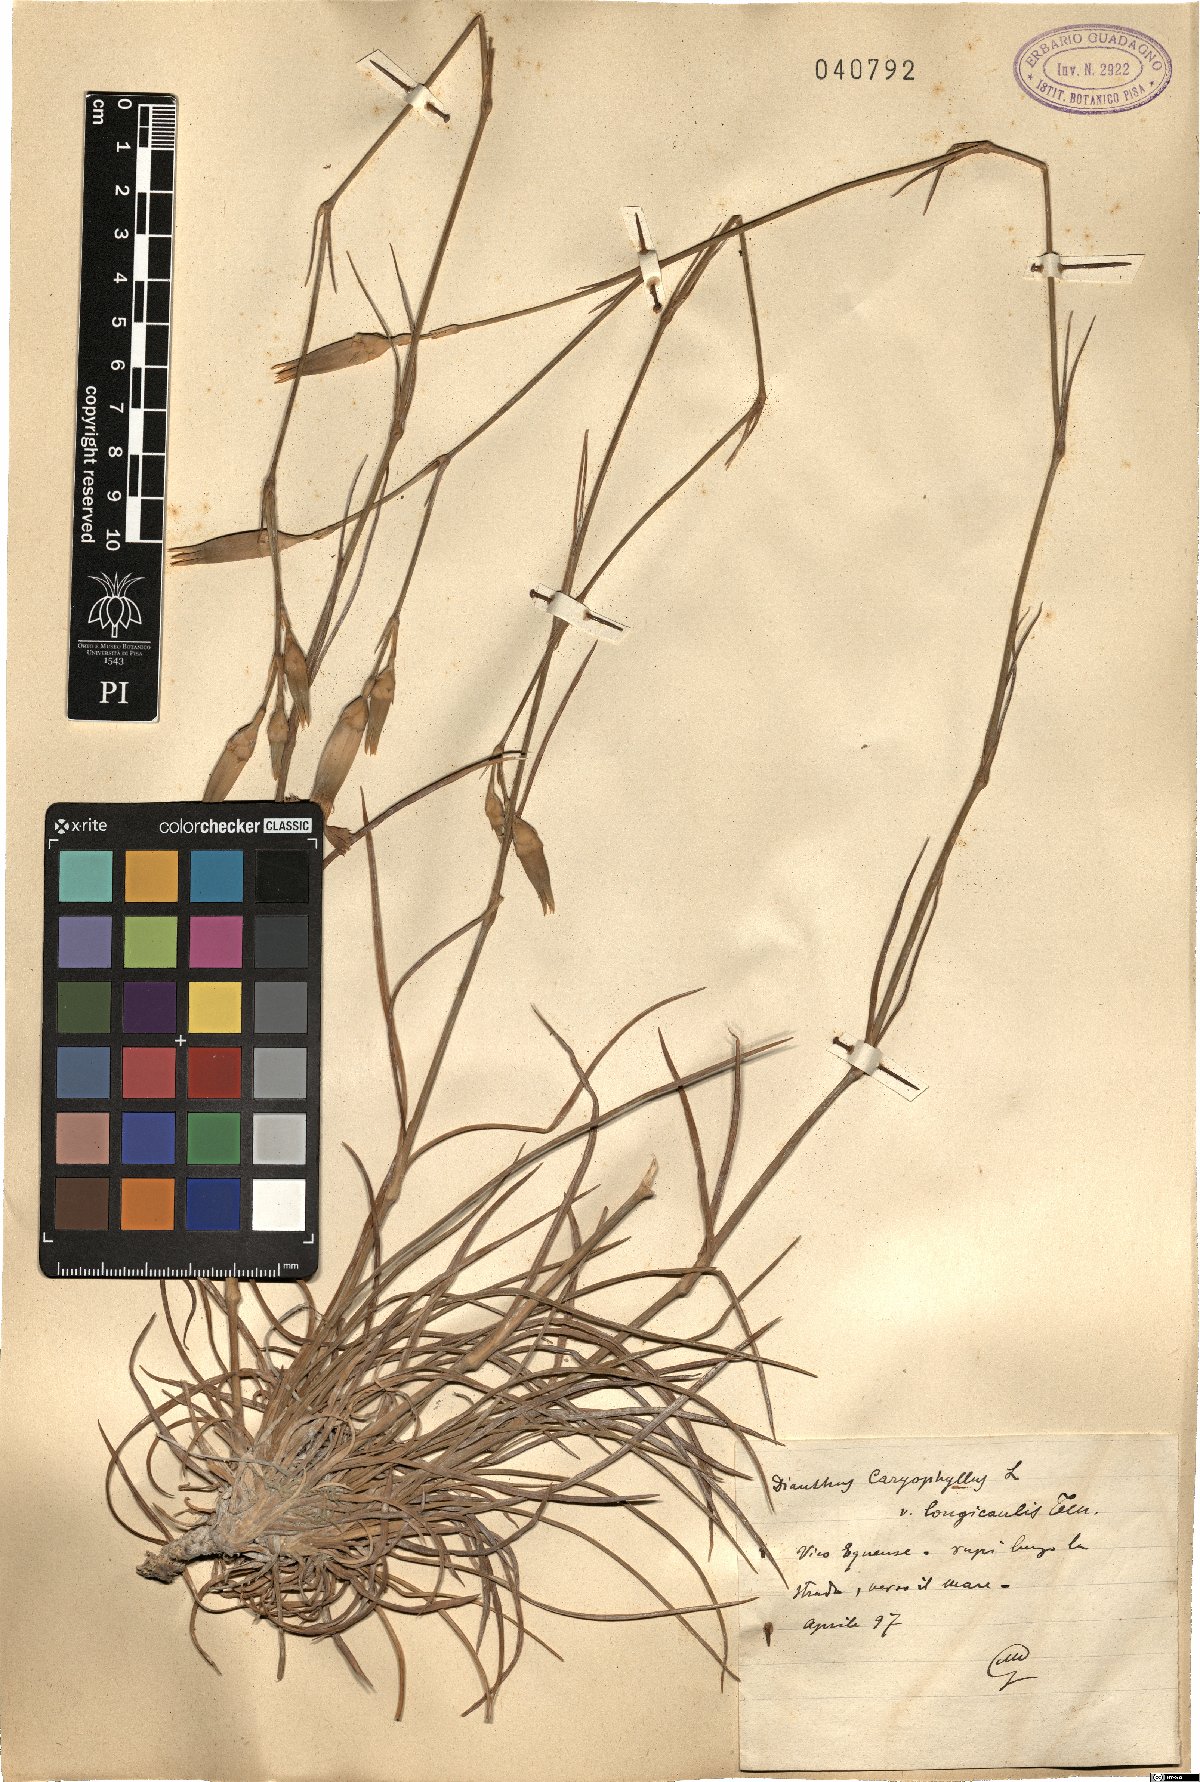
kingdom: Plantae
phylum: Tracheophyta
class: Magnoliopsida
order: Caryophyllales
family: Caryophyllaceae
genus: Dianthus
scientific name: Dianthus virgineus
